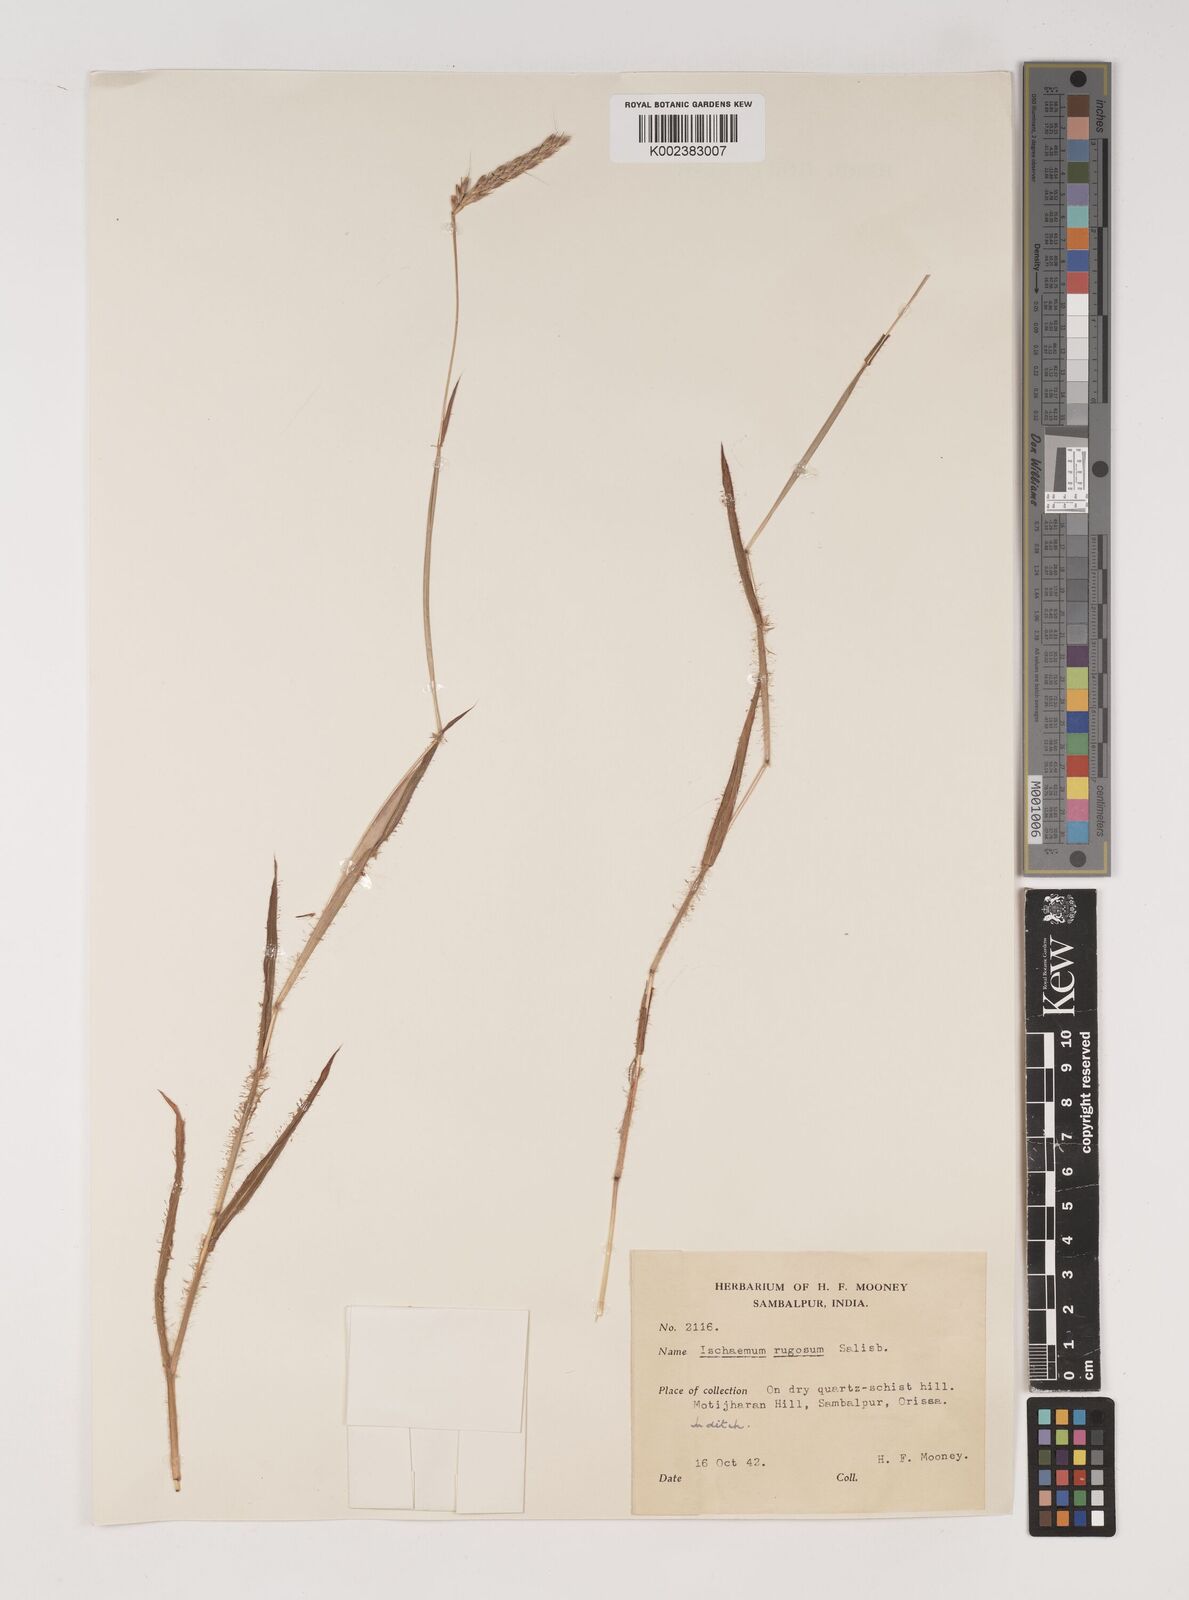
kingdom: Plantae
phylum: Tracheophyta
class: Liliopsida
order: Poales
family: Poaceae
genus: Ischaemum
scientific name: Ischaemum rugosum
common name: Saramatta grass
